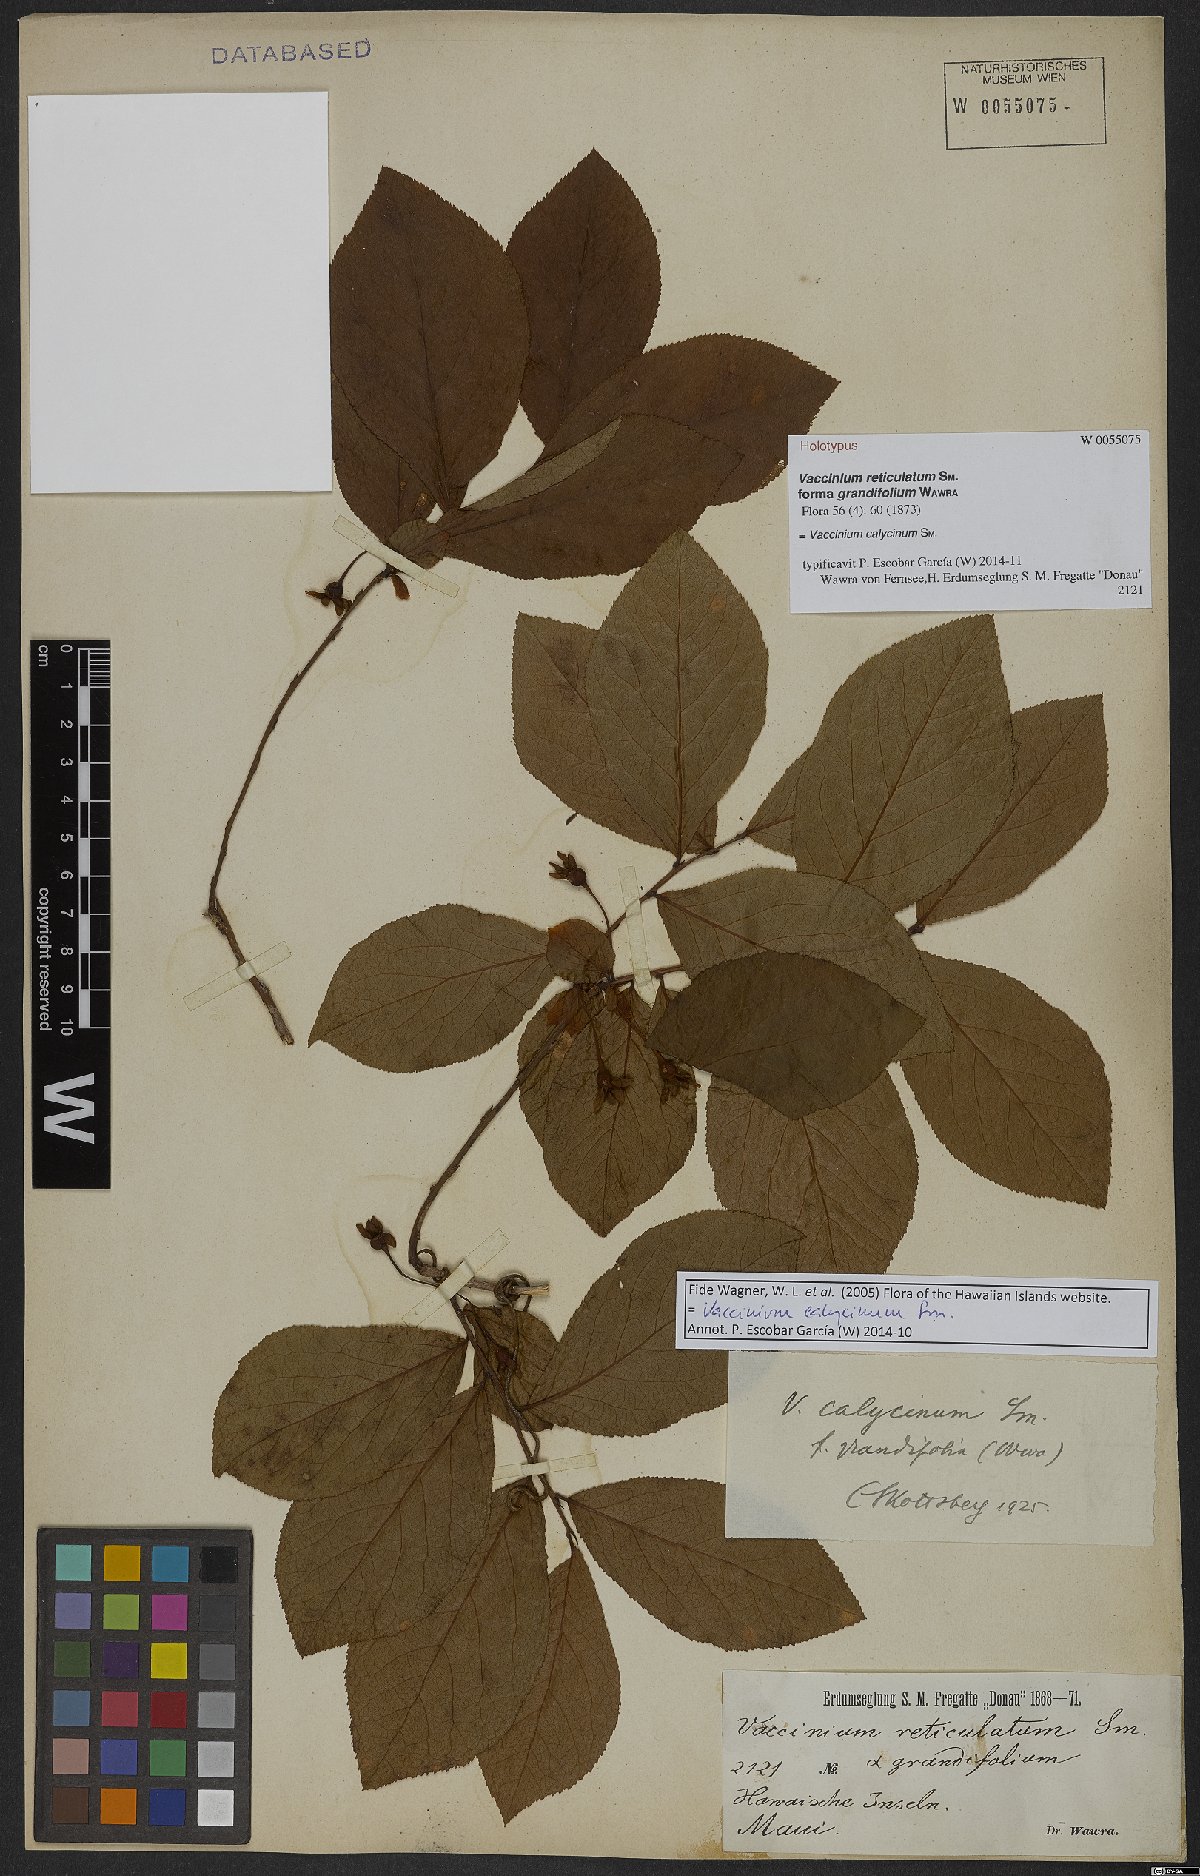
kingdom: Plantae
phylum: Tracheophyta
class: Magnoliopsida
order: Ericales
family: Ericaceae
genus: Vaccinium
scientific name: Vaccinium calycinum
